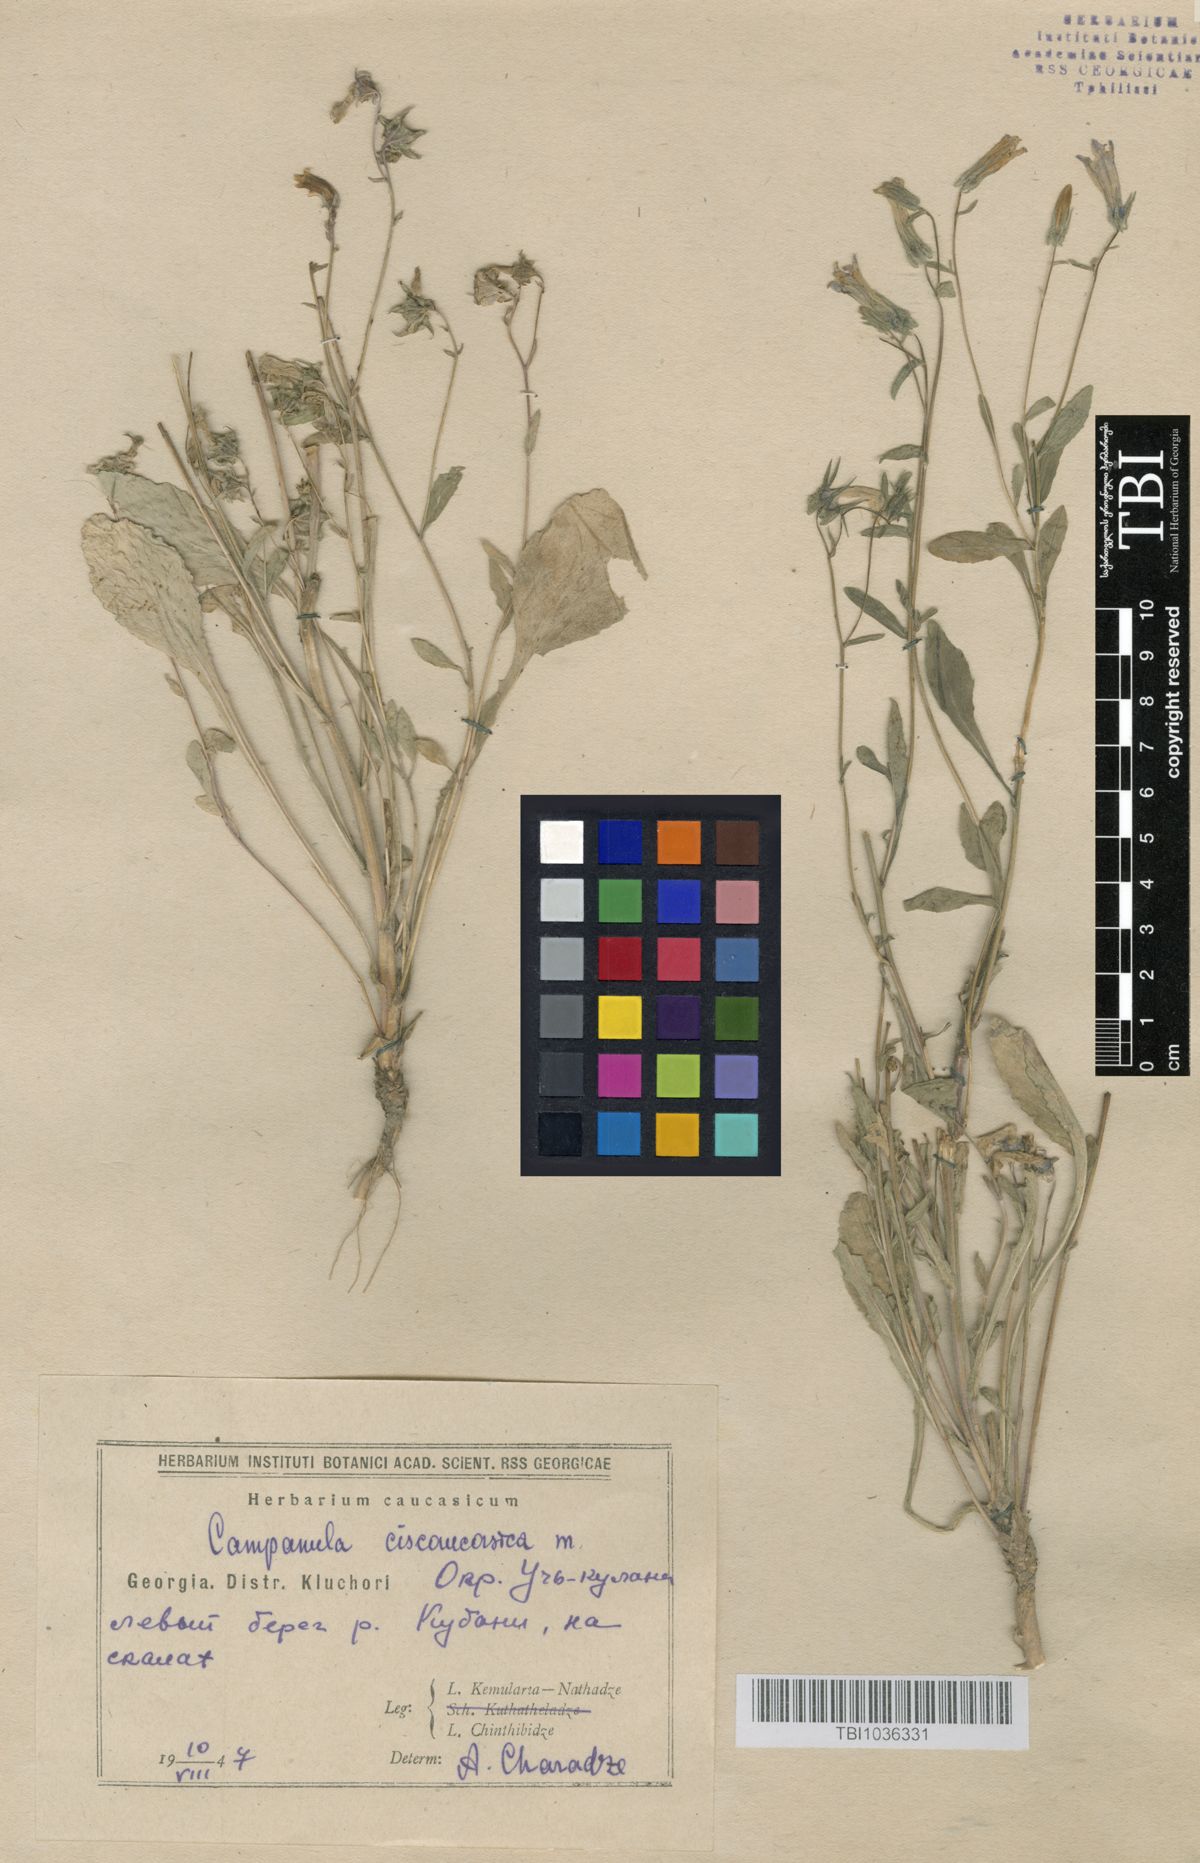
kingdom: Plantae
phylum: Tracheophyta
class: Magnoliopsida
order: Asterales
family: Campanulaceae
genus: Campanula
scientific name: Campanula sibirica
